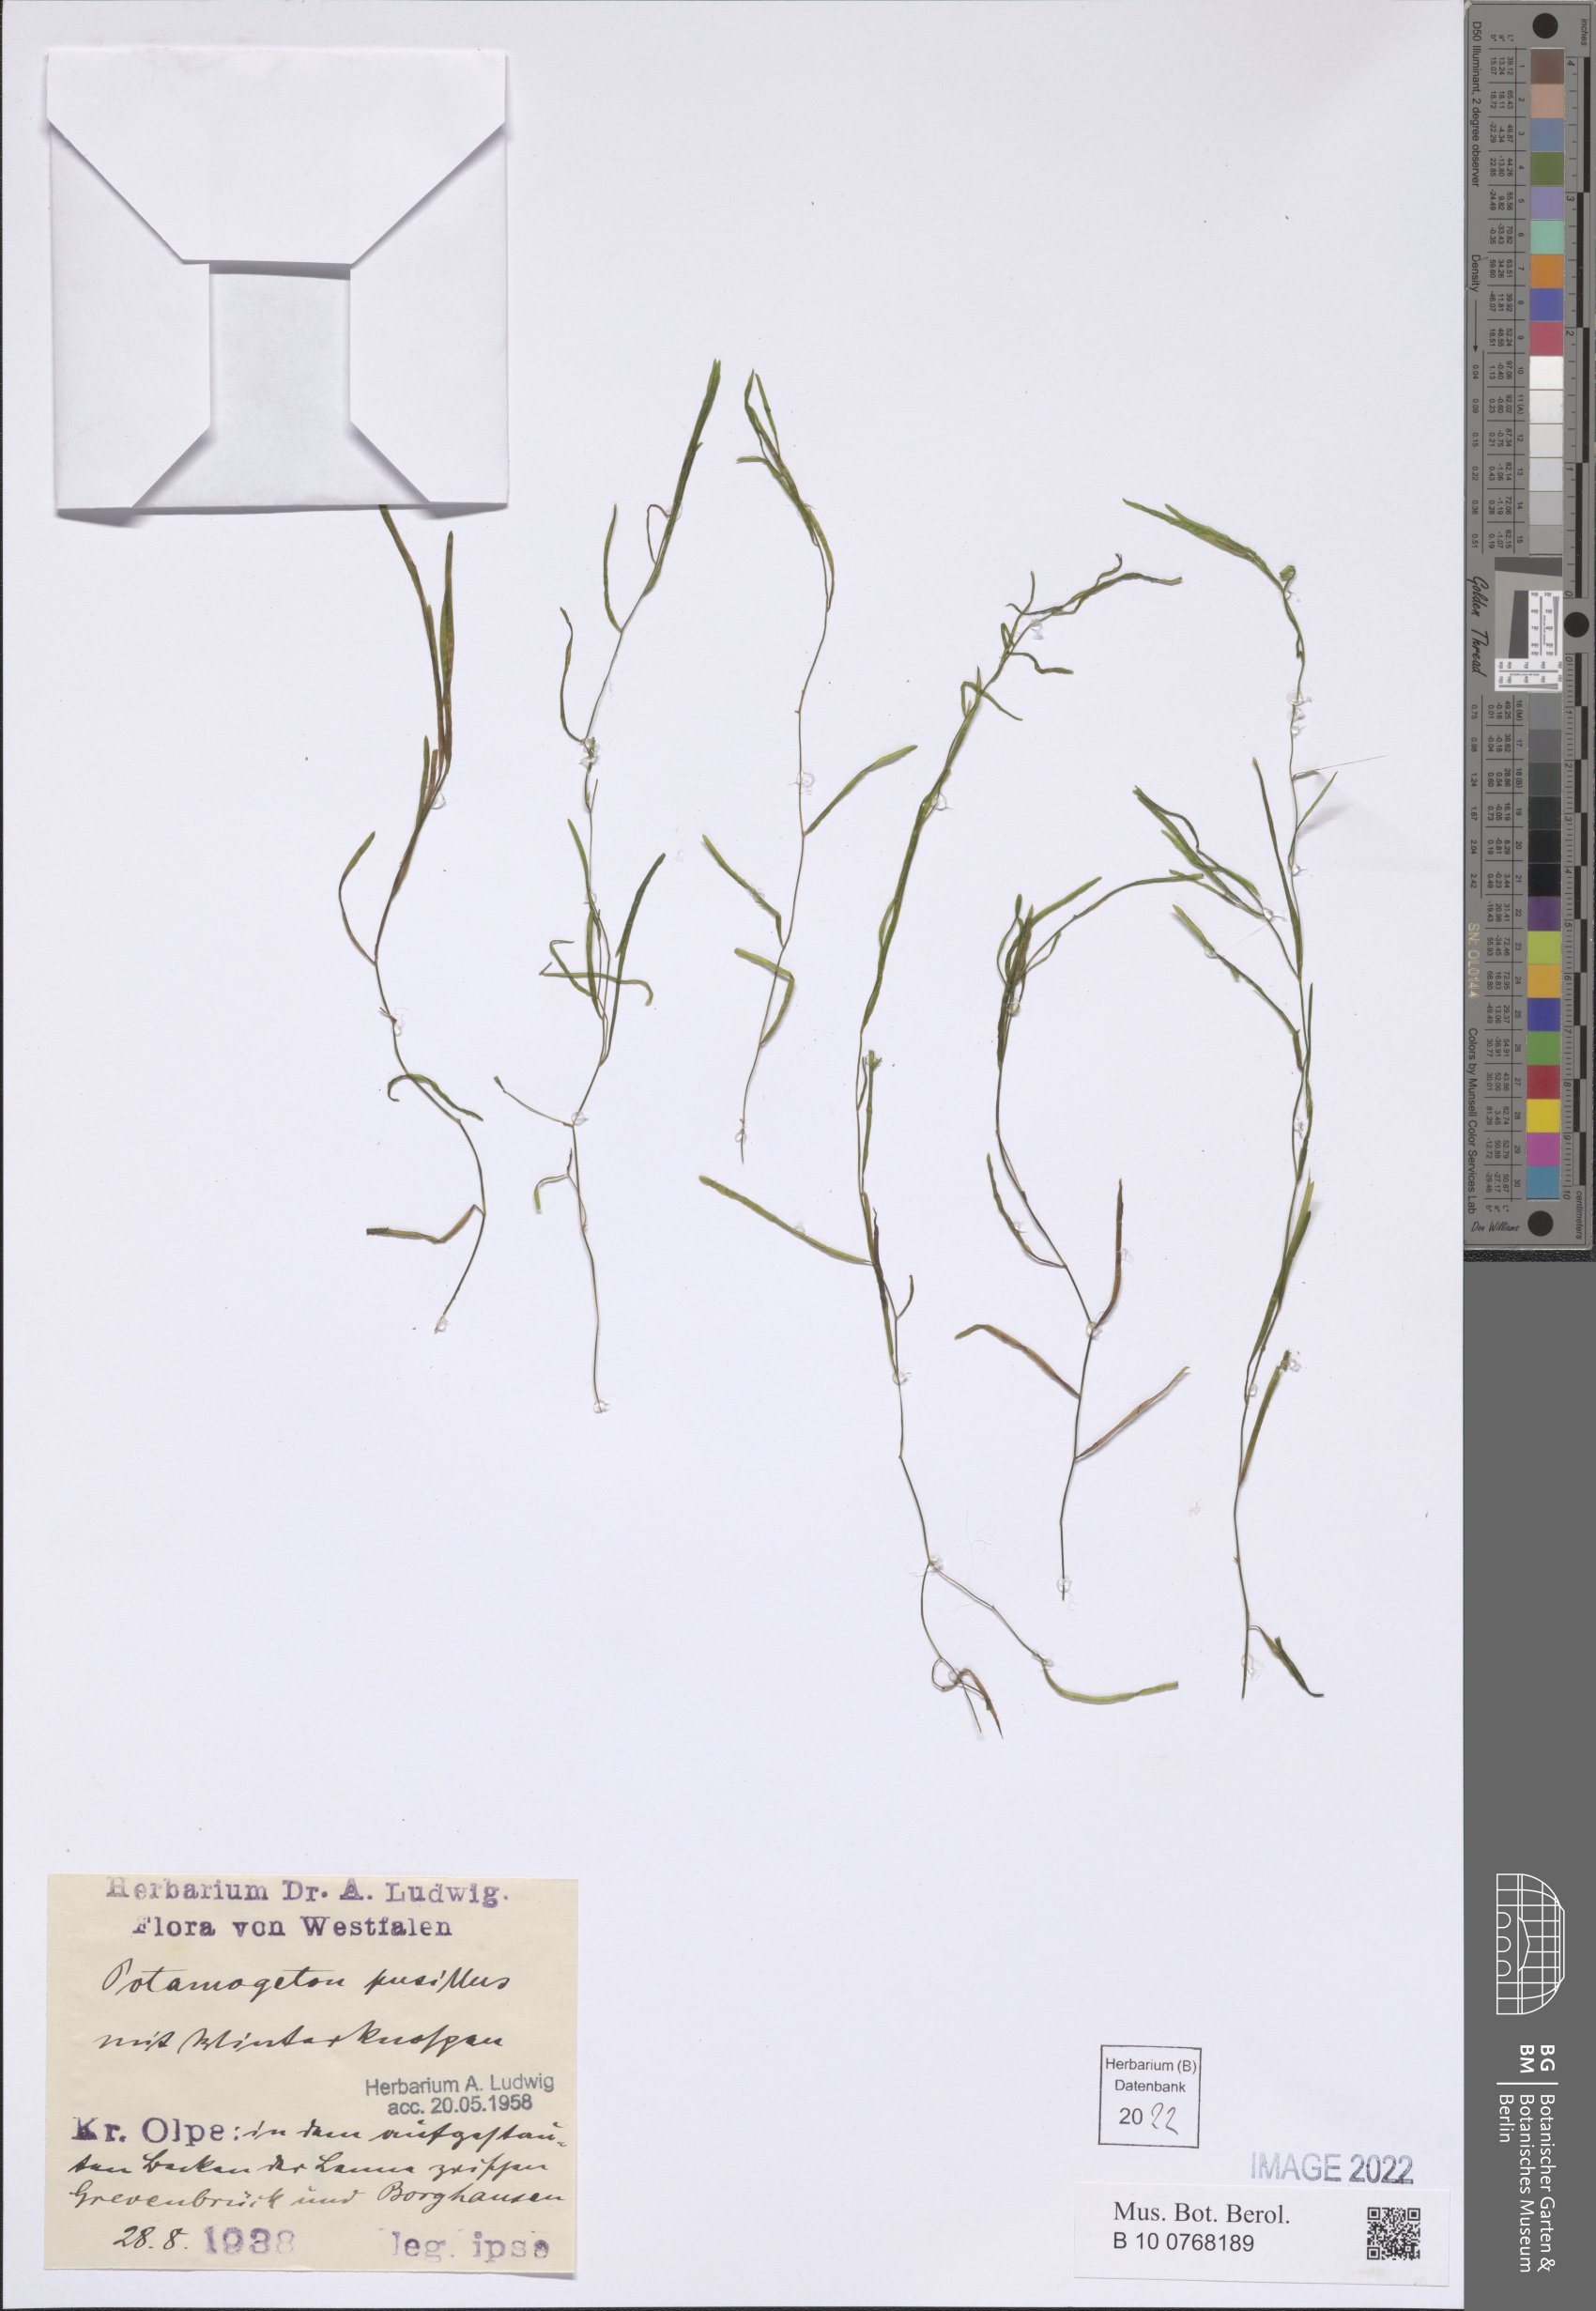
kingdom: Plantae
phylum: Tracheophyta
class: Liliopsida
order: Alismatales
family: Potamogetonaceae
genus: Potamogeton
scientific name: Potamogeton pusillus
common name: Lesser pondweed
